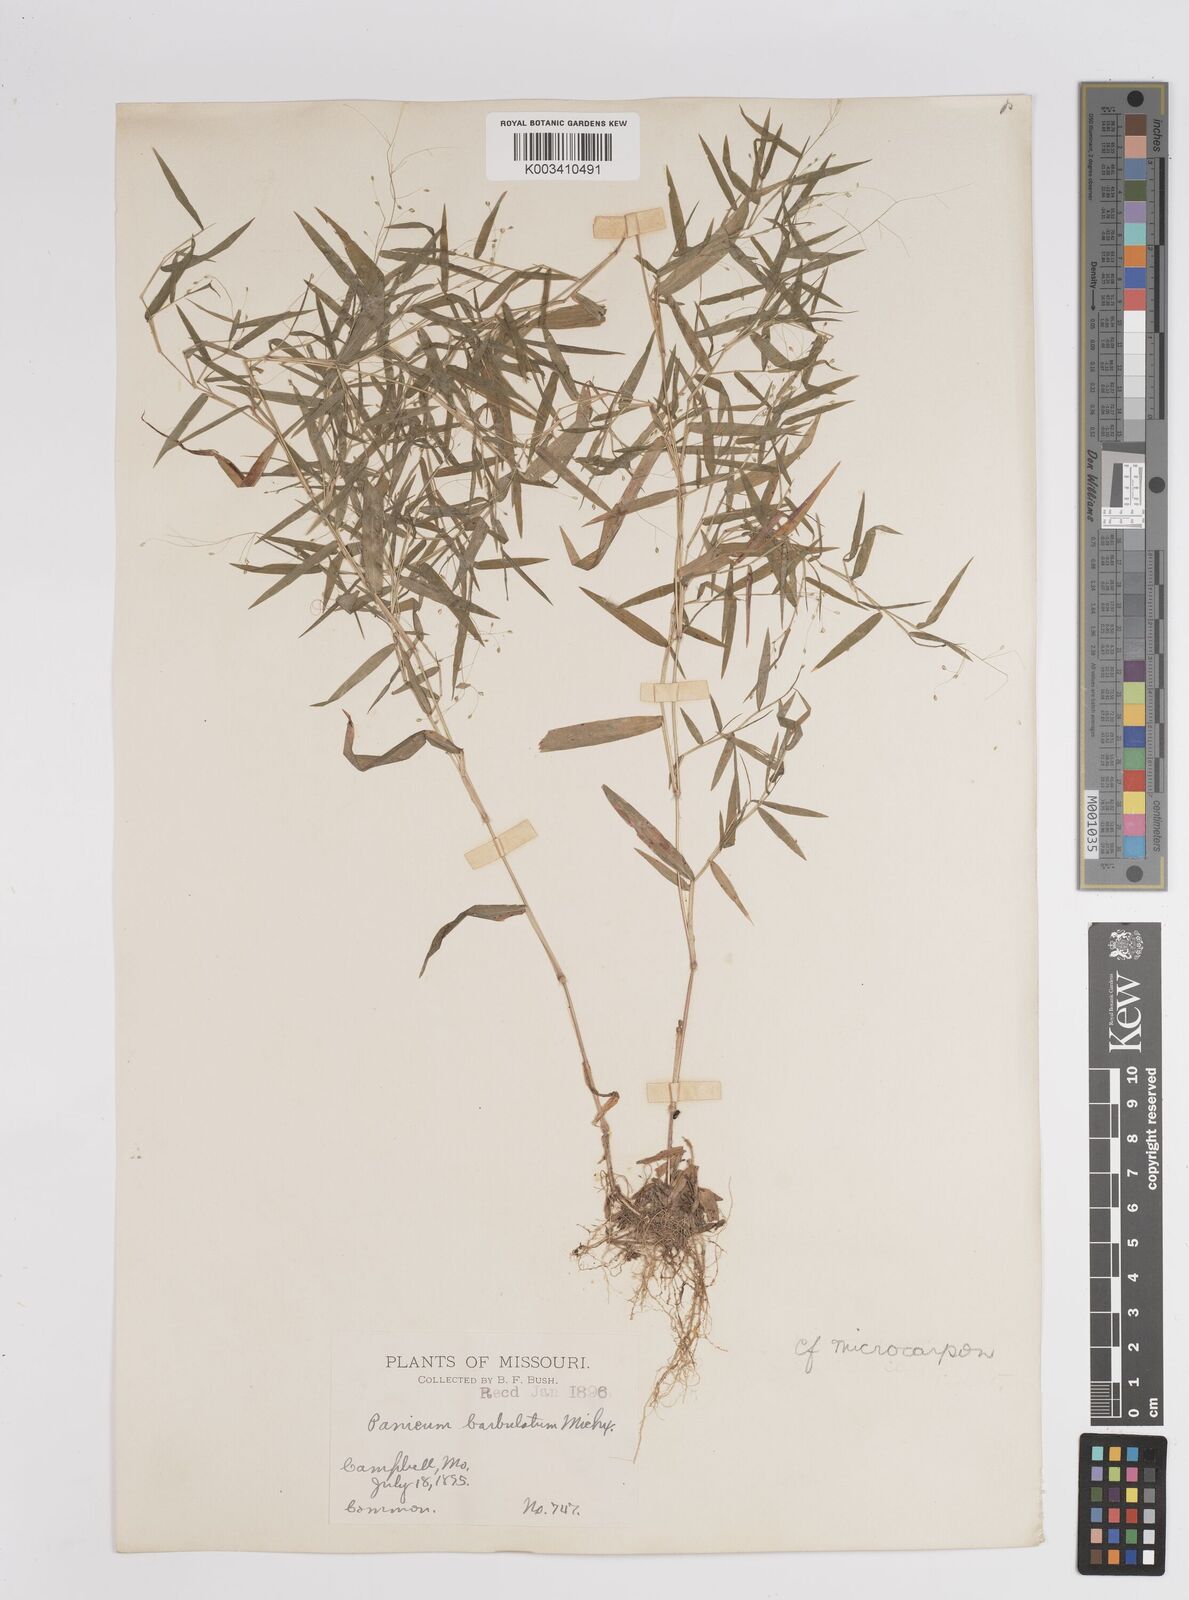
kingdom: Plantae
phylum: Tracheophyta
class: Liliopsida
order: Poales
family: Poaceae
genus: Dichanthelium
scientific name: Dichanthelium polyanthes
